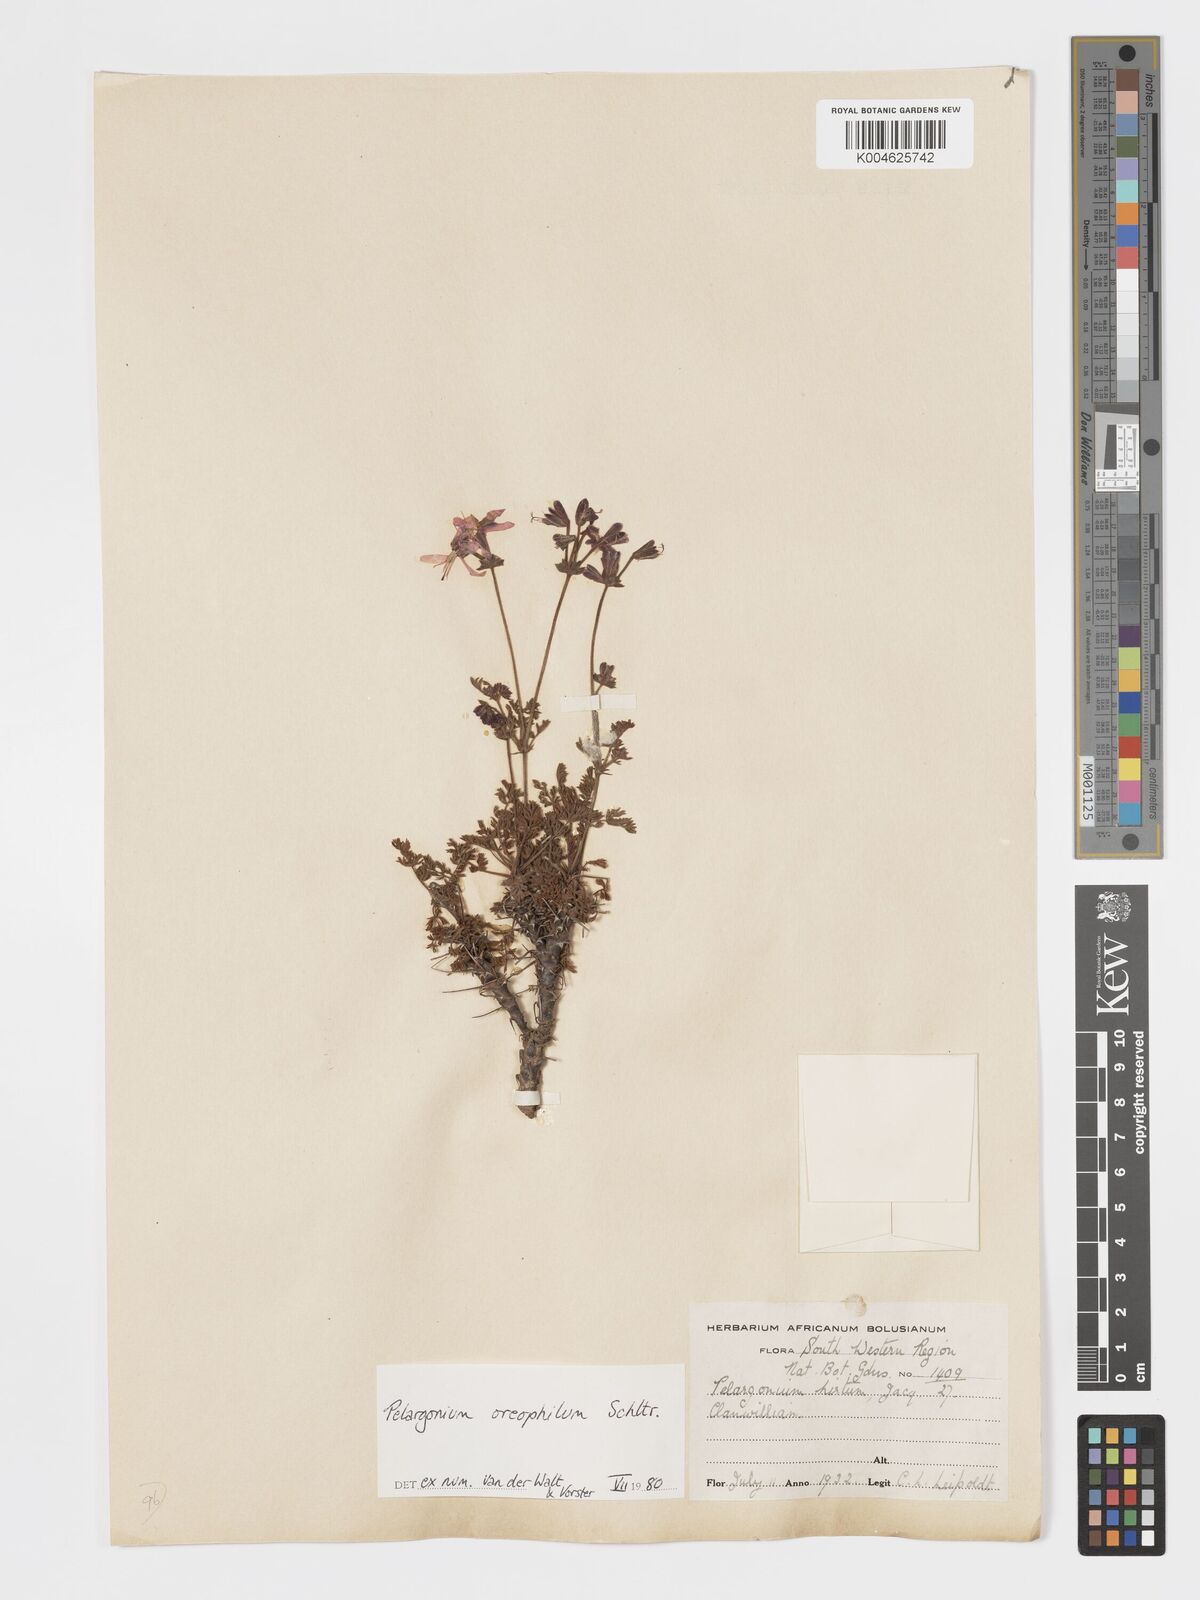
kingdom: Plantae
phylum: Tracheophyta
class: Magnoliopsida
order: Geraniales
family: Geraniaceae
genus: Pelargonium
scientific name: Pelargonium oreophilum
